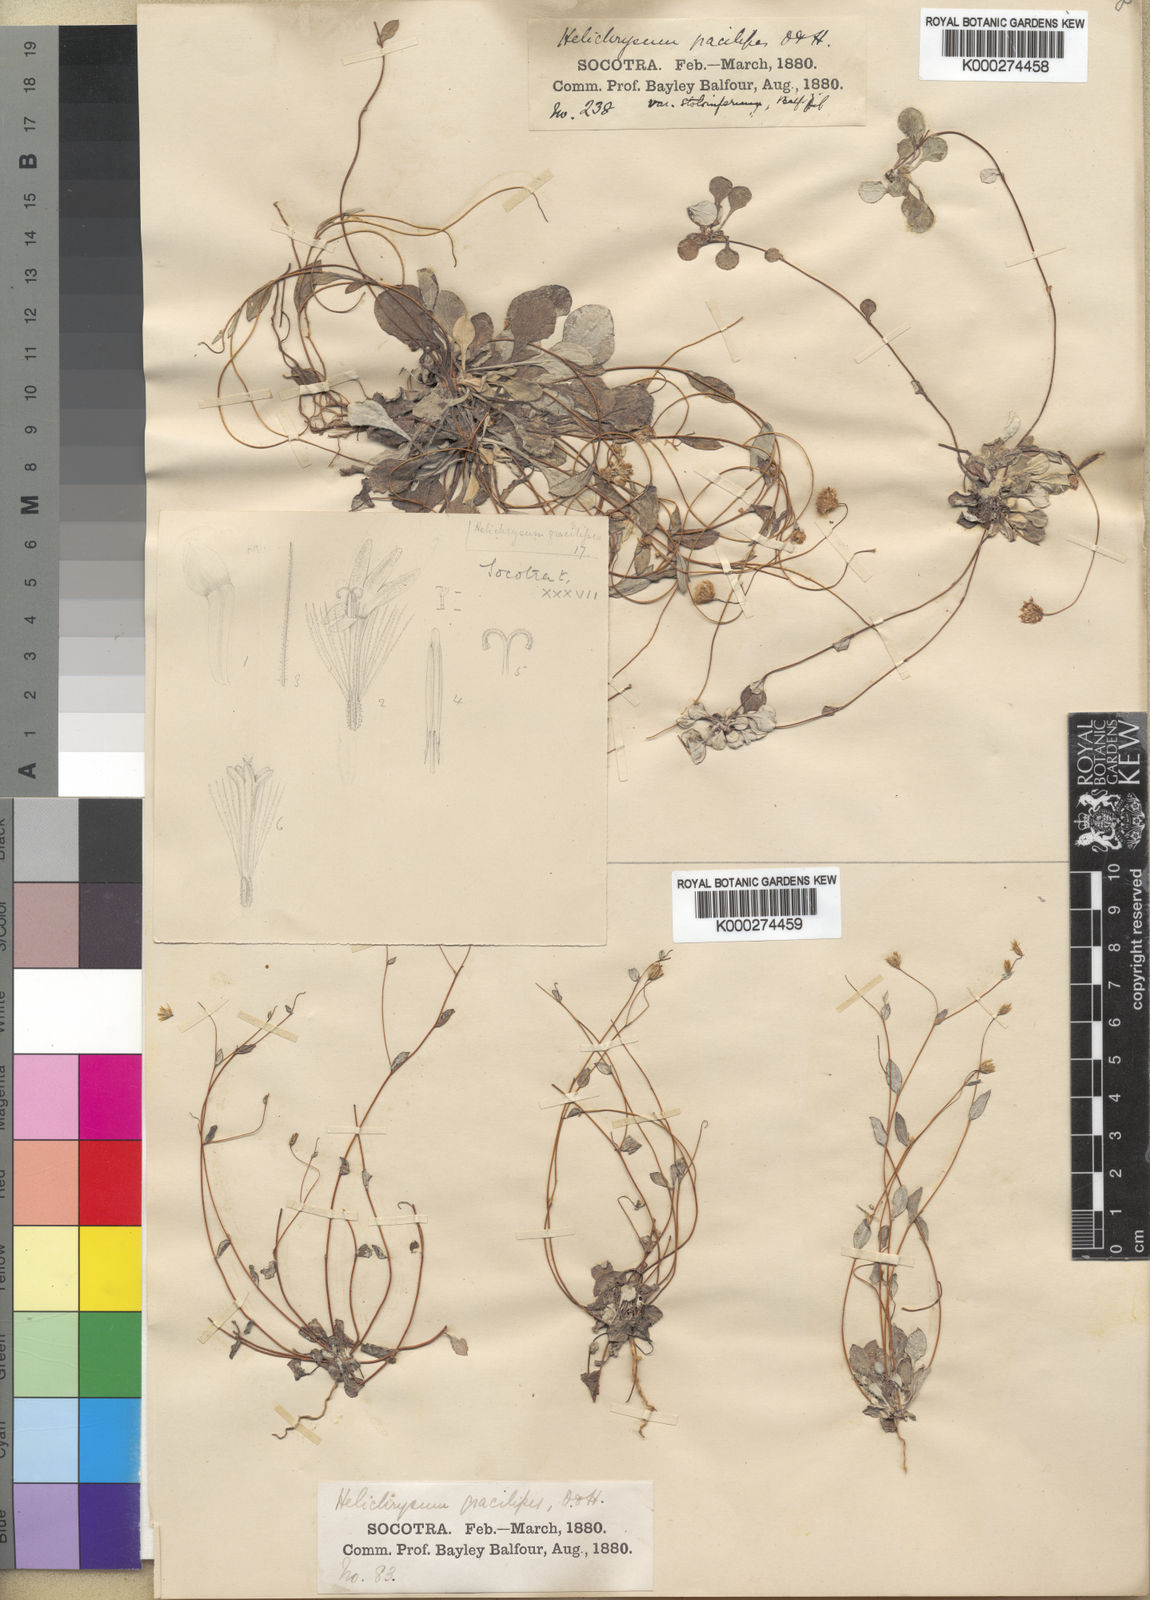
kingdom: Plantae
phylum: Tracheophyta
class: Magnoliopsida
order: Asterales
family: Asteraceae
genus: Libinhania
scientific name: Libinhania gracilipes
